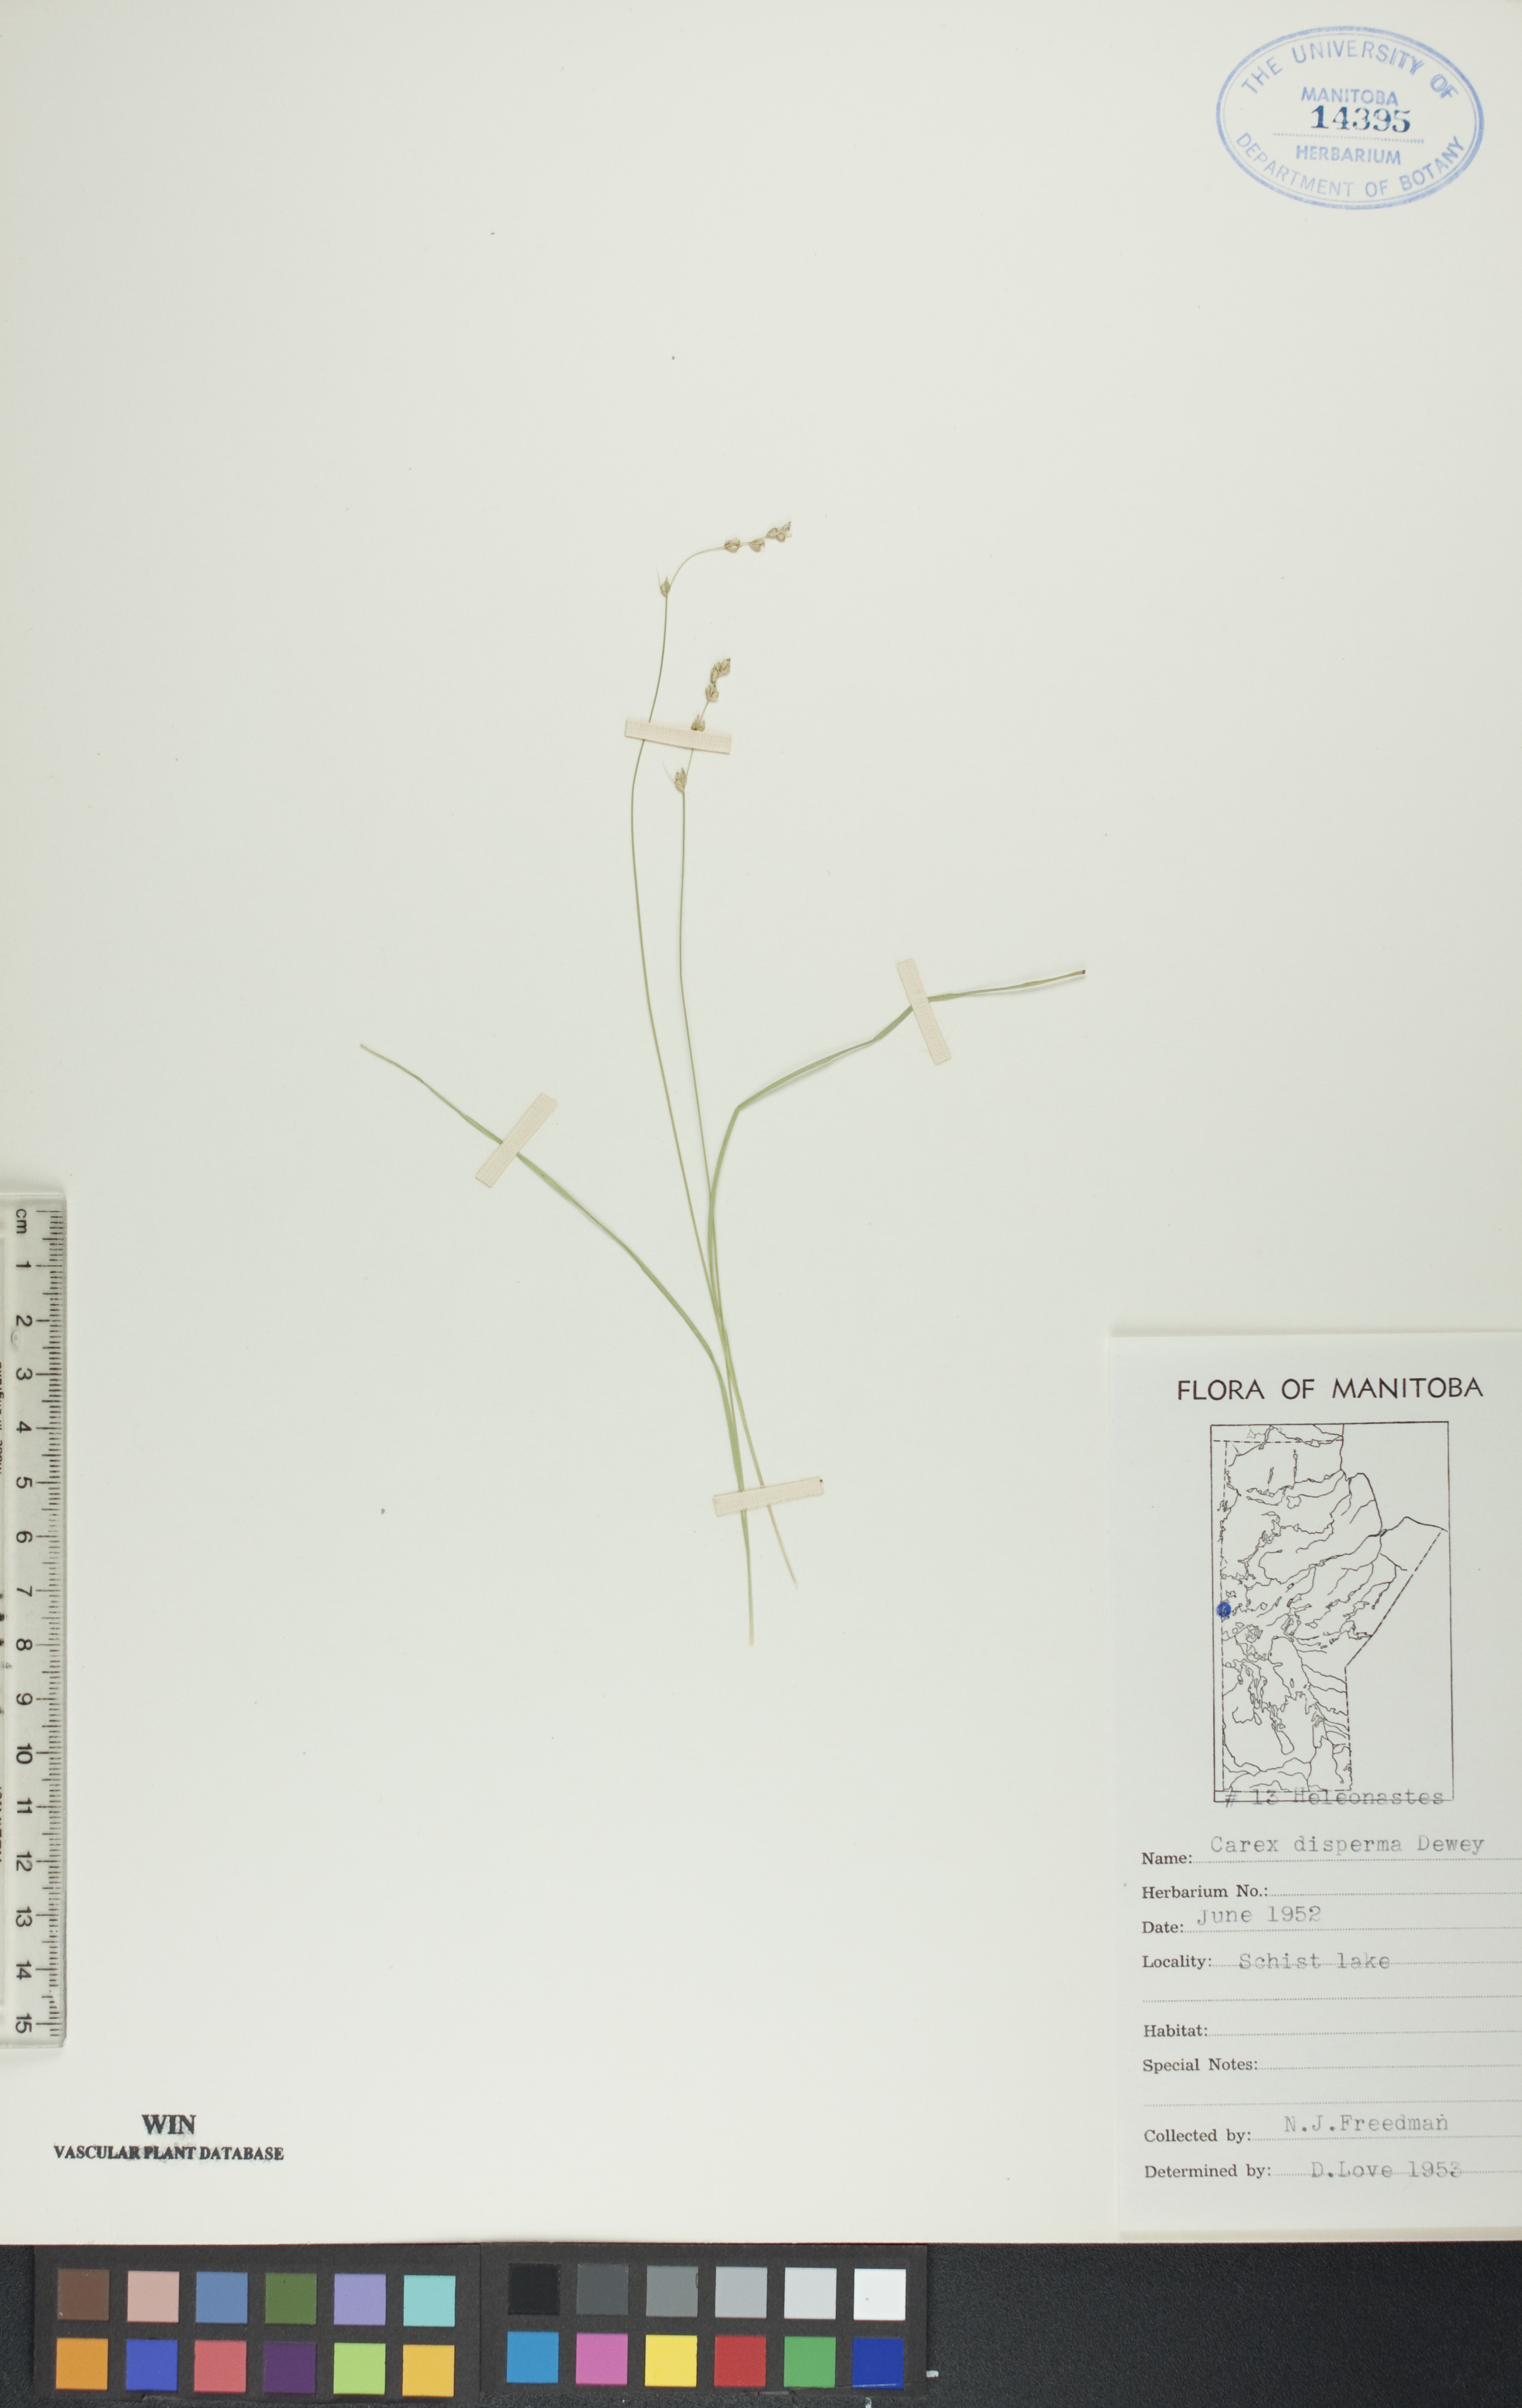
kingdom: Plantae
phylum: Tracheophyta
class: Liliopsida
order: Poales
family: Cyperaceae
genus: Carex
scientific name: Carex disperma
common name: Short-leaved sedge
